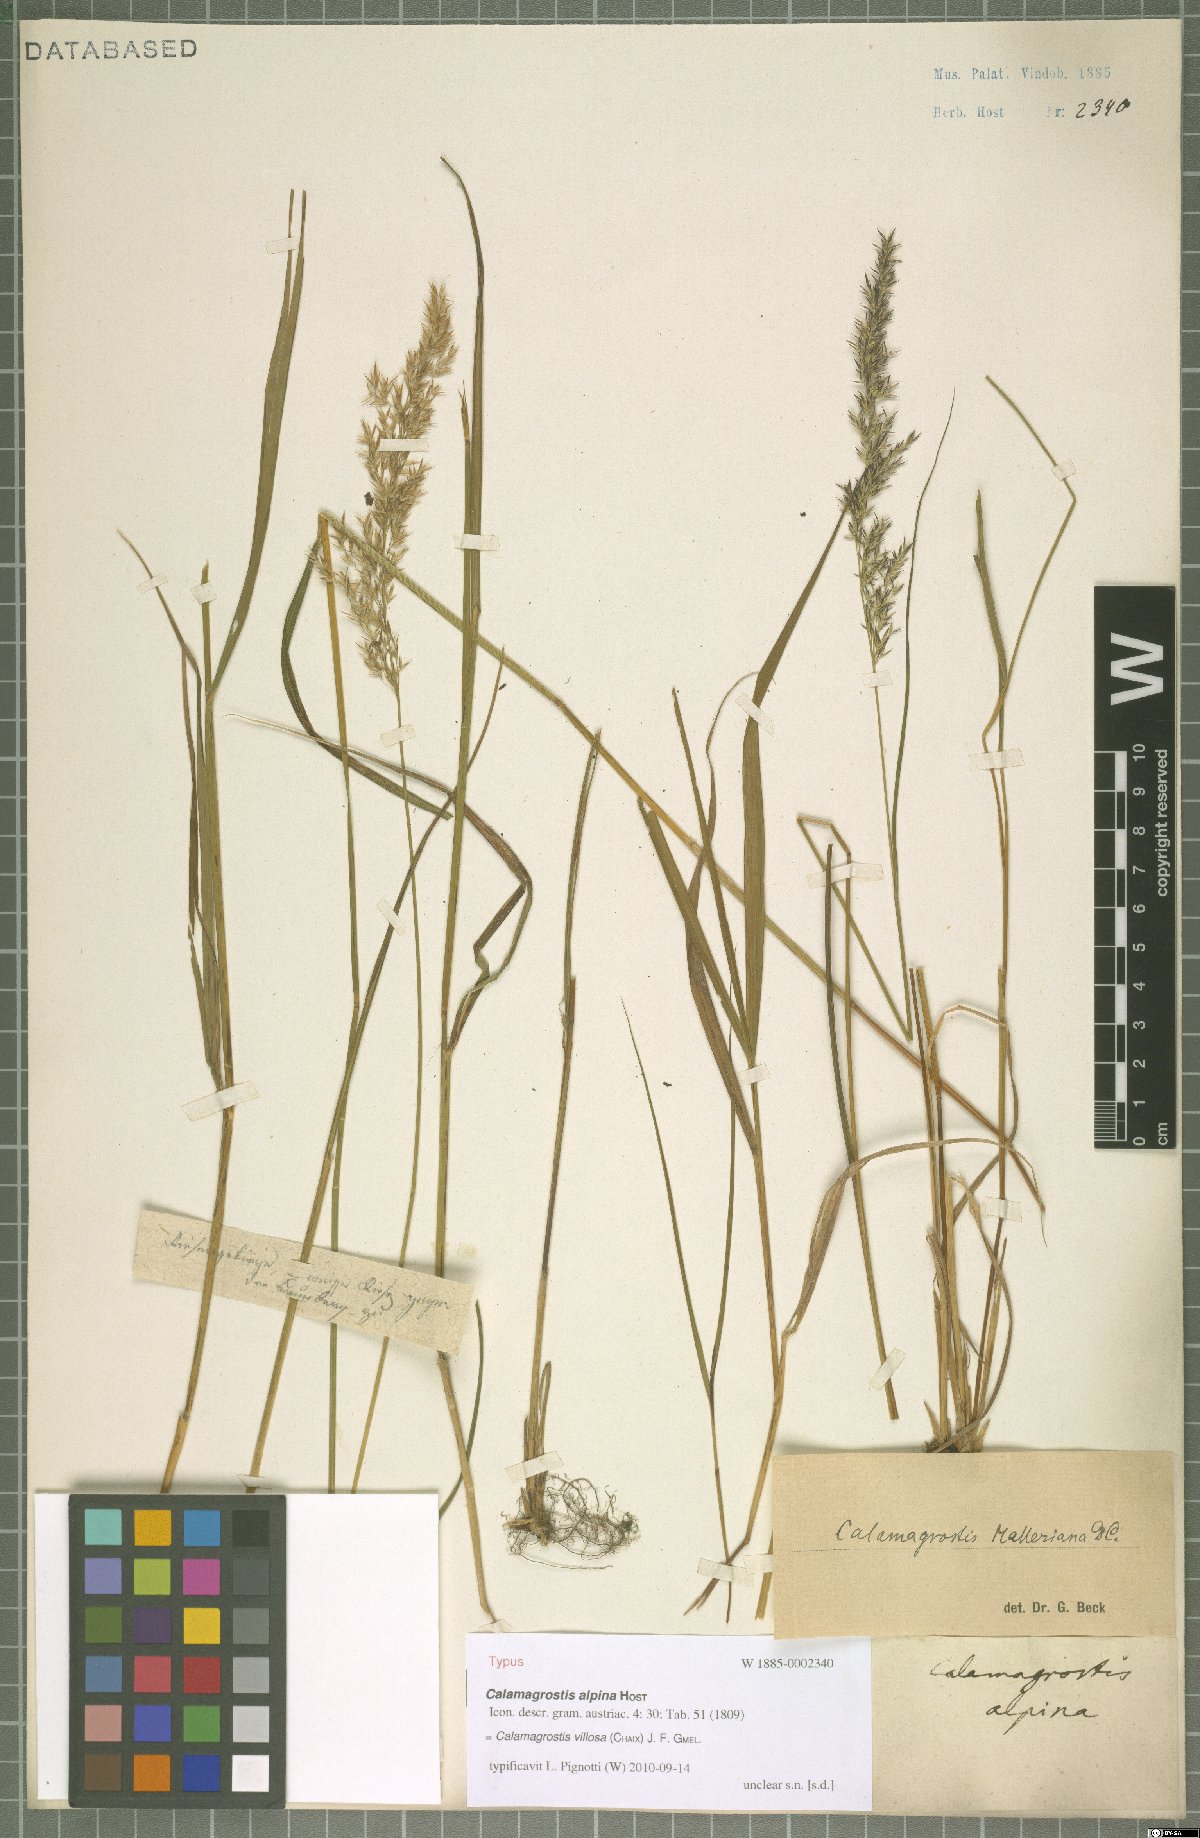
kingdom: Plantae
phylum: Tracheophyta
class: Liliopsida
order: Poales
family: Poaceae
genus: Calamagrostis
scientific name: Calamagrostis villosa
